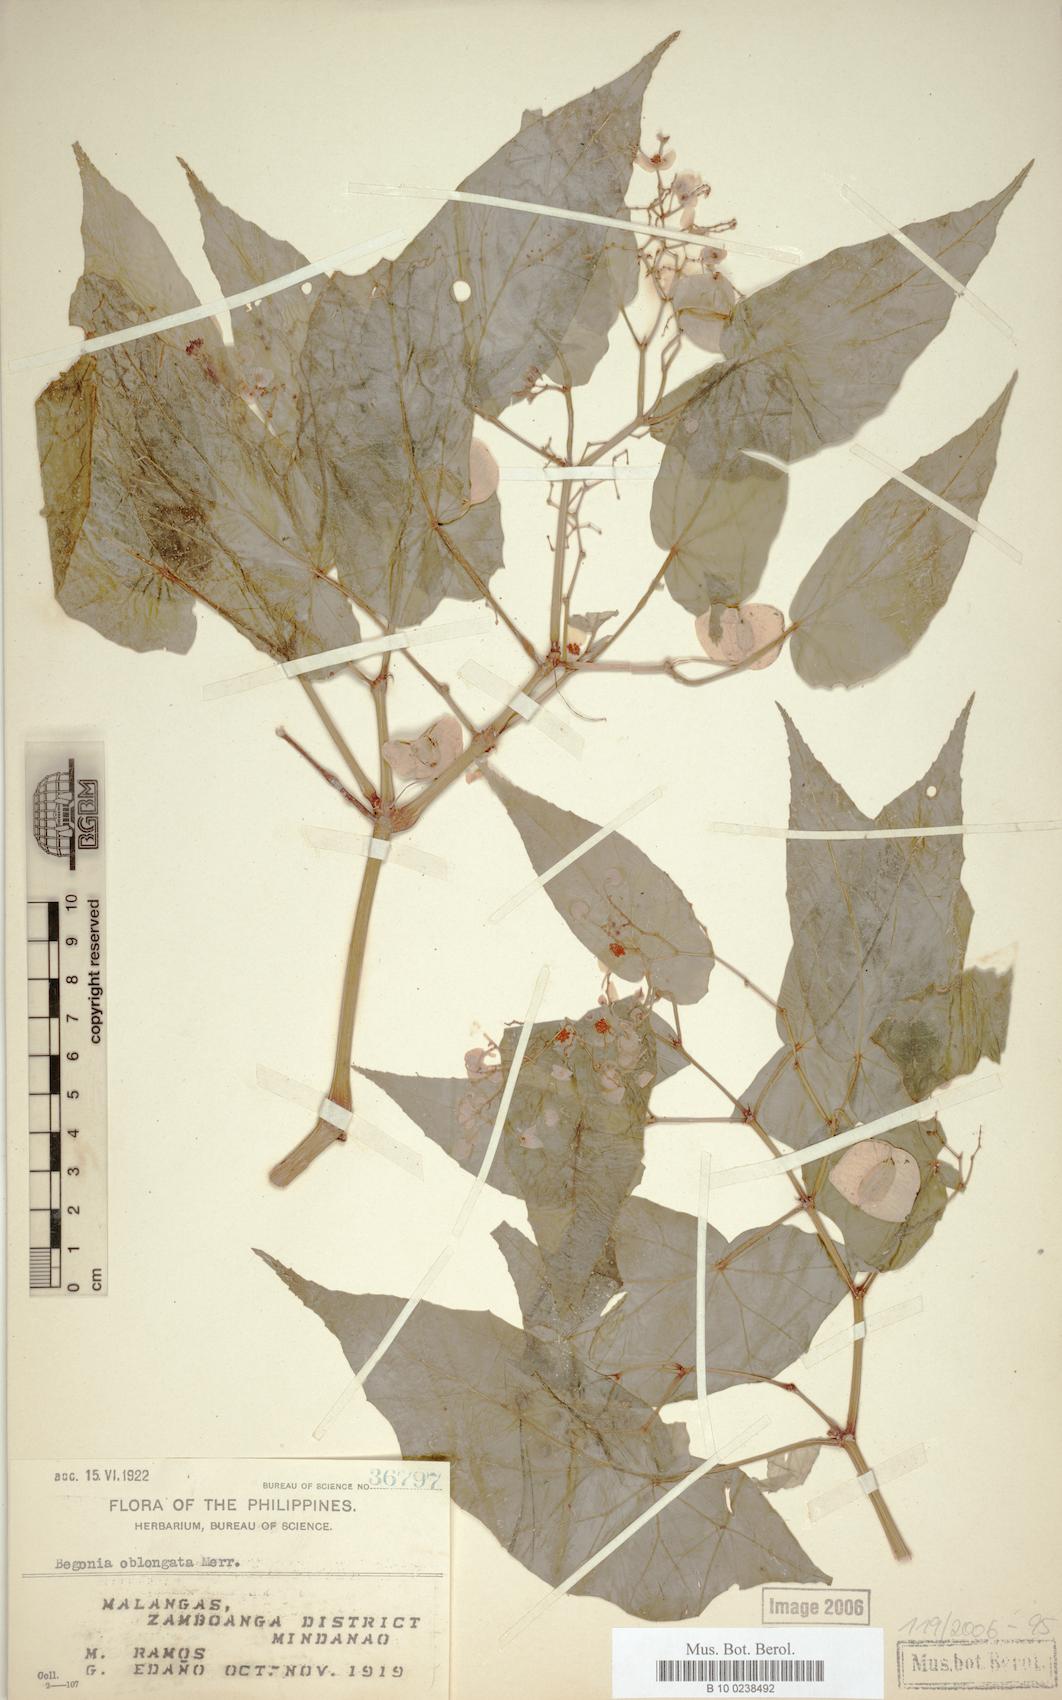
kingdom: Plantae
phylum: Tracheophyta
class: Magnoliopsida
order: Cucurbitales
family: Begoniaceae
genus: Begonia
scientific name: Begonia oblongata
